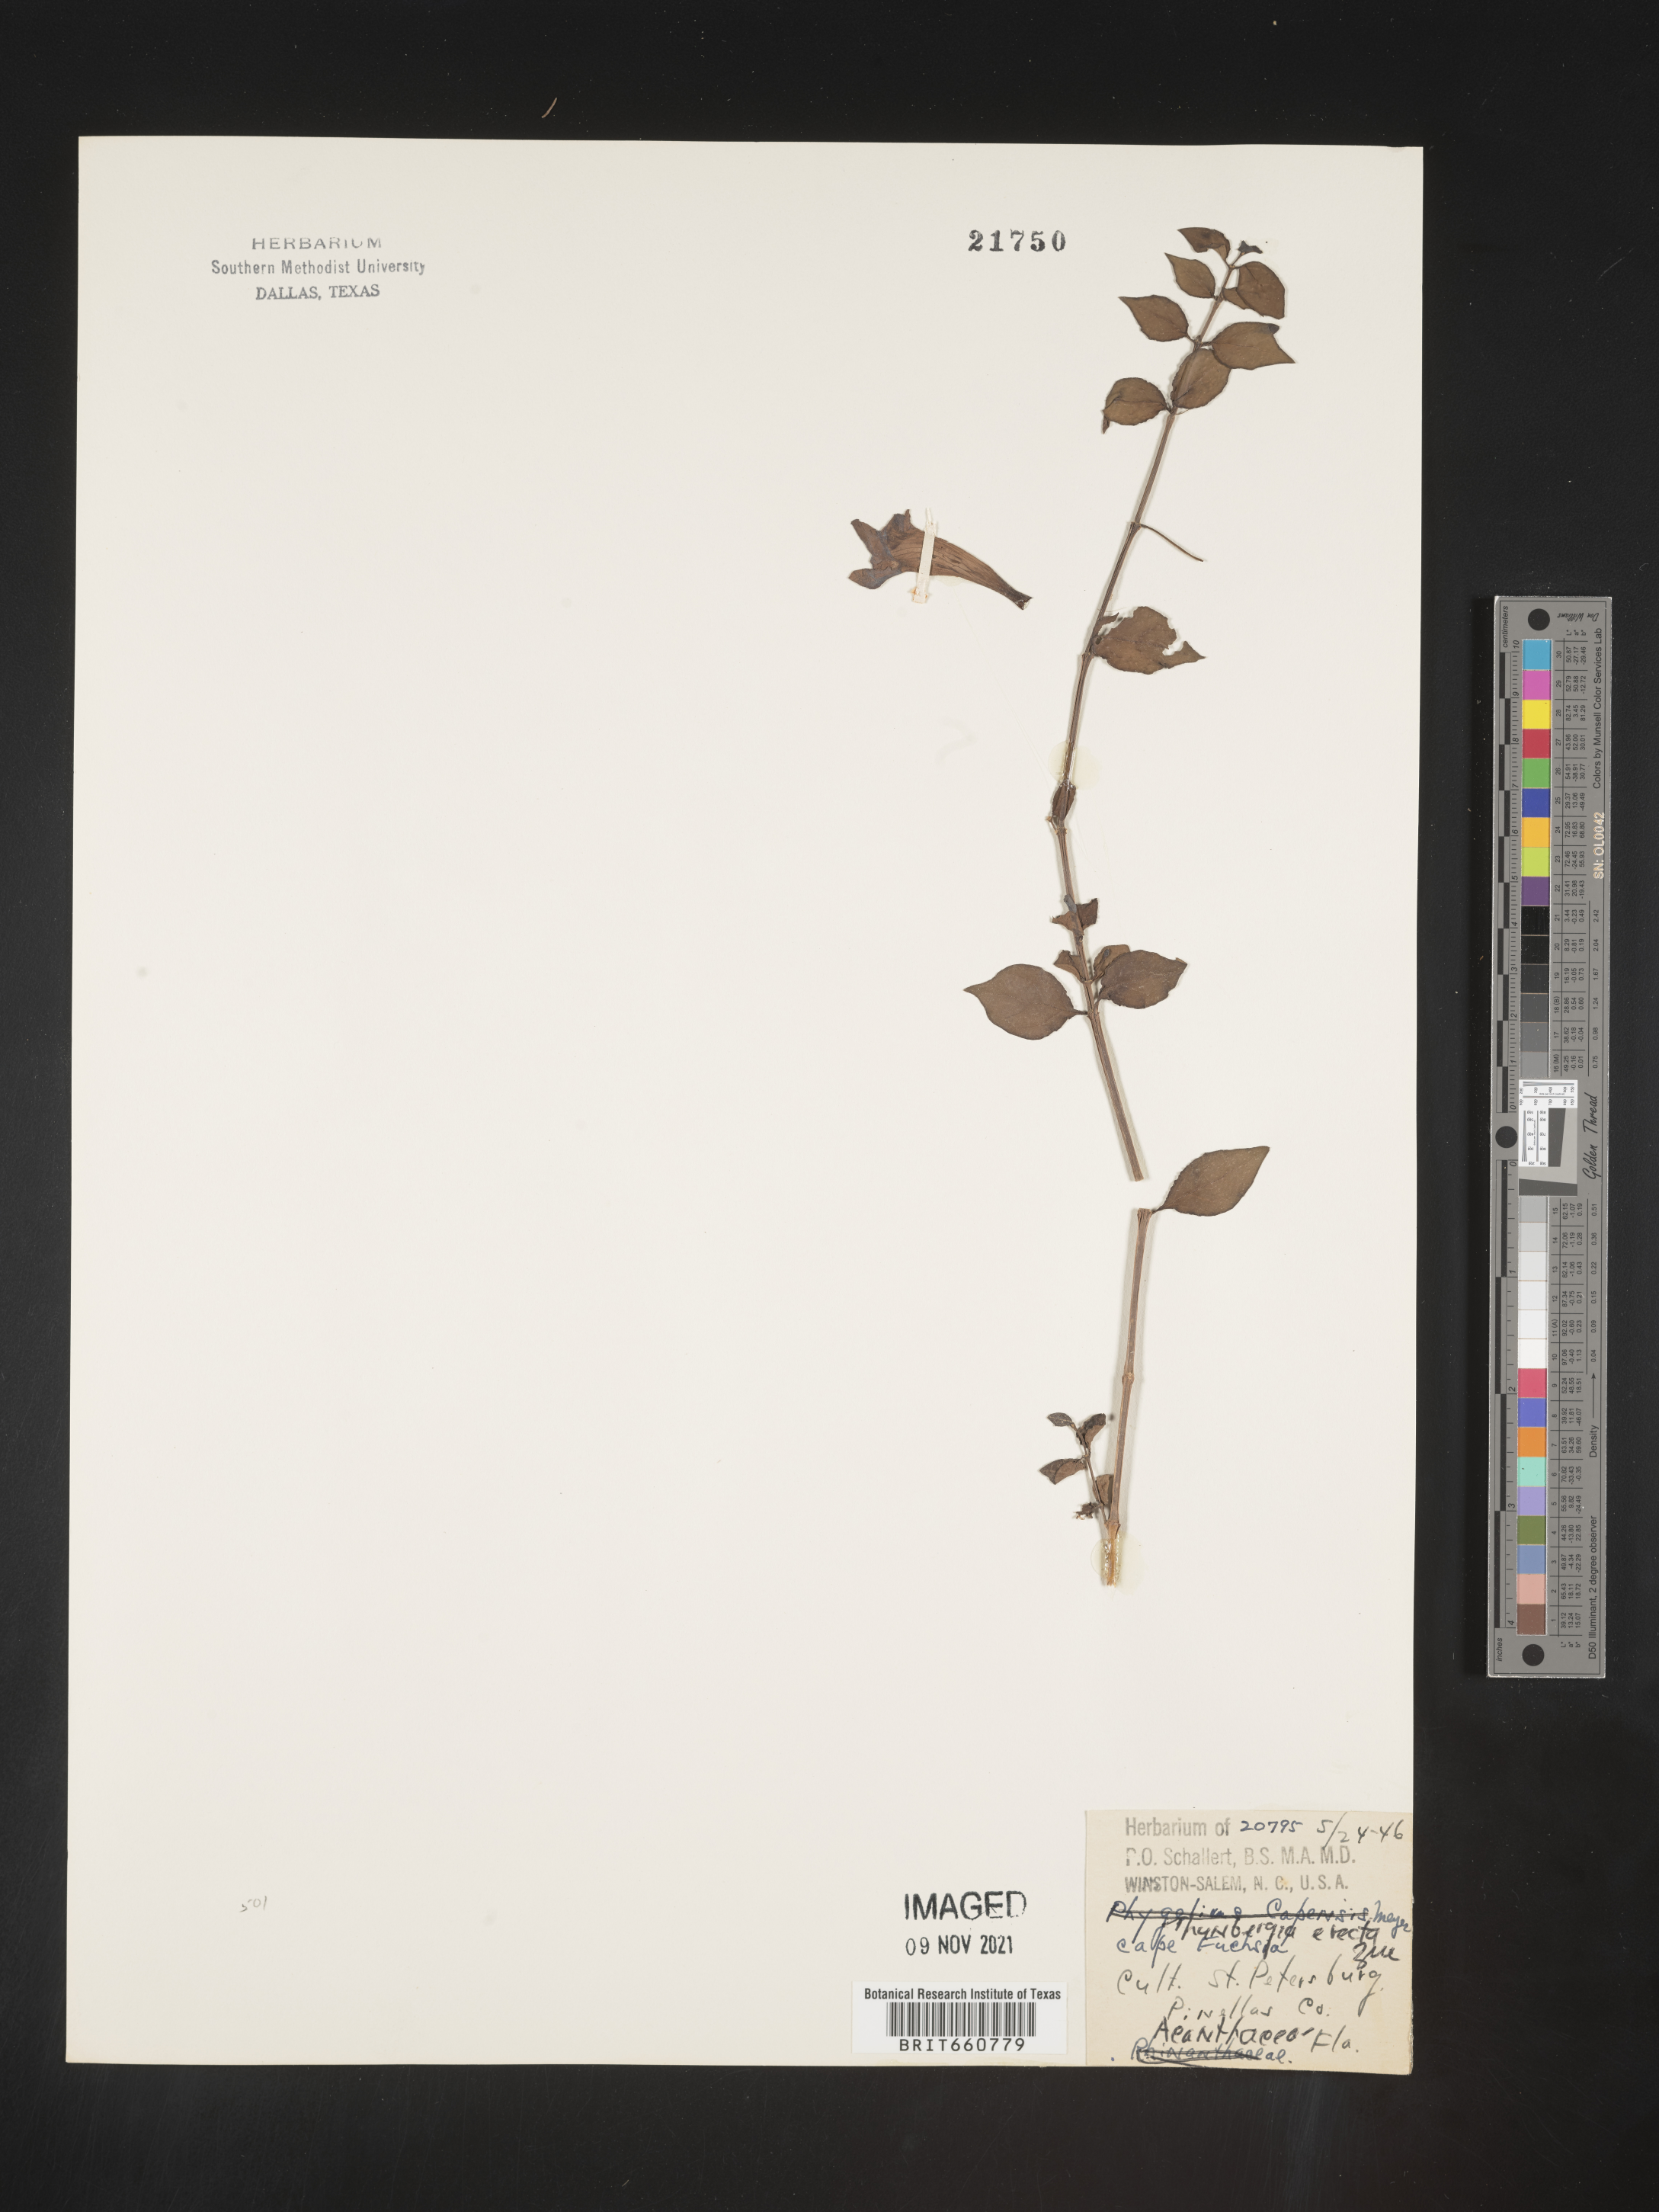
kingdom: Plantae
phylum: Tracheophyta
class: Magnoliopsida
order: Lamiales
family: Acanthaceae
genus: Thunbergia
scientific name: Thunbergia
